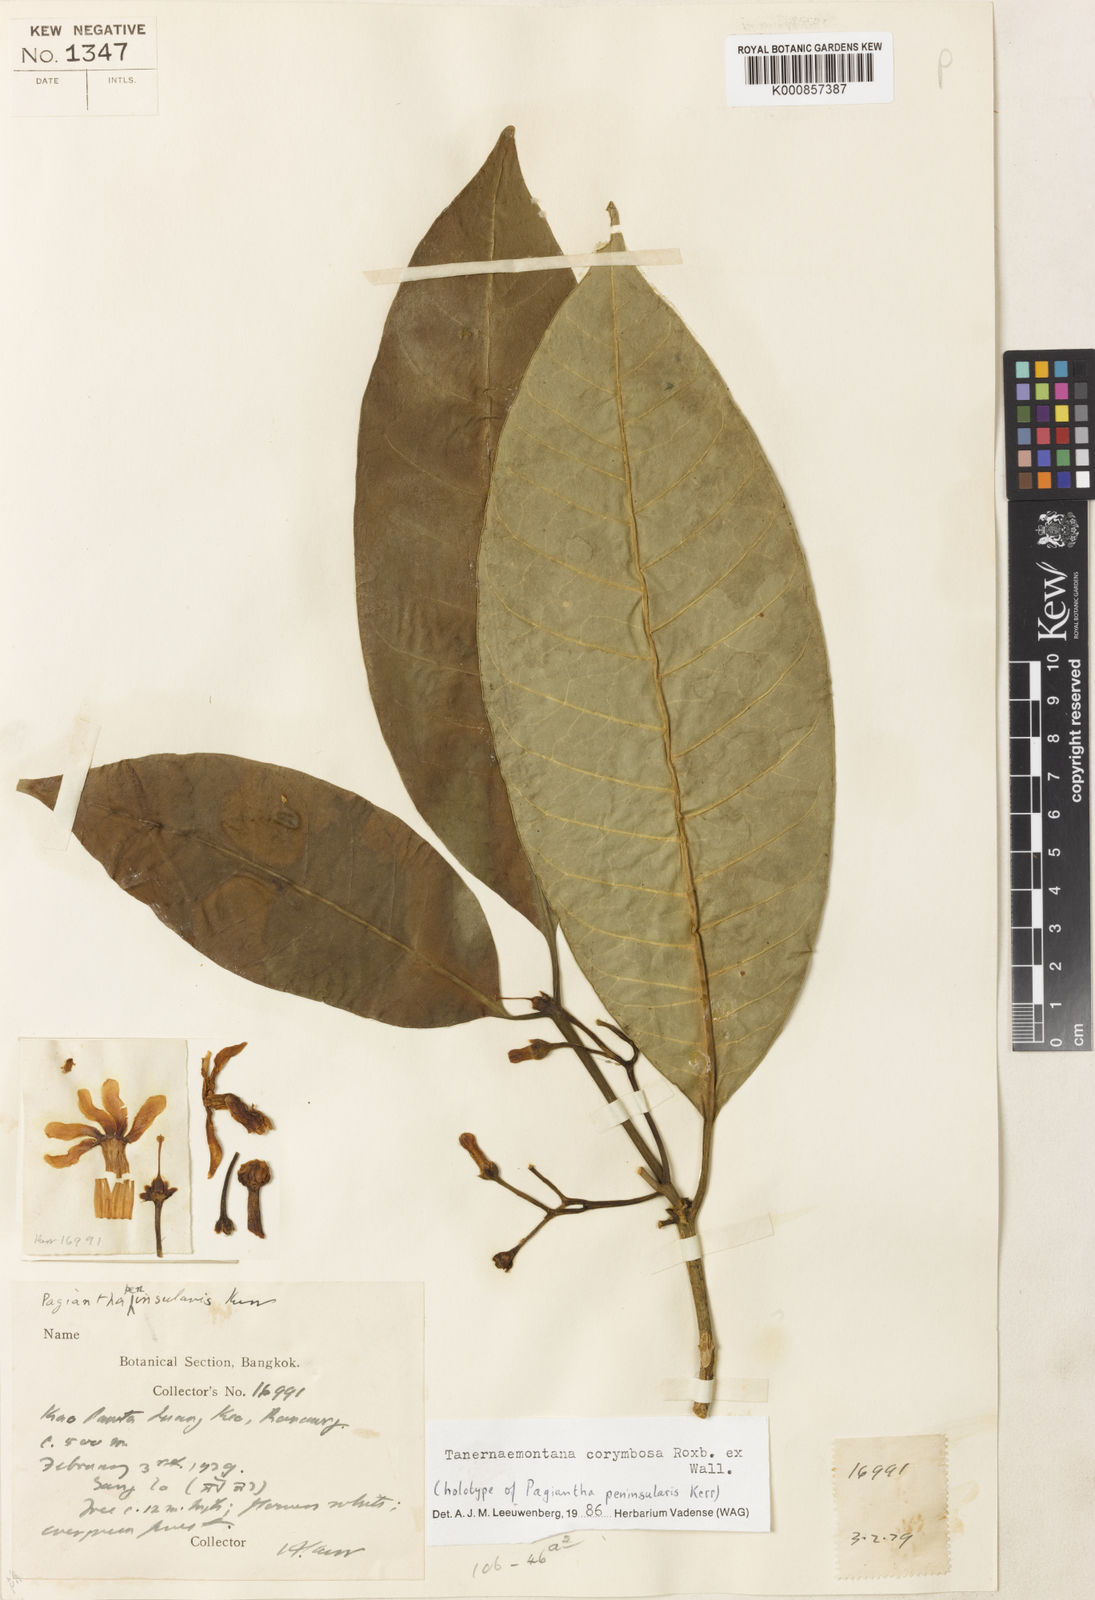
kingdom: Plantae
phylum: Tracheophyta
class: Magnoliopsida
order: Gentianales
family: Apocynaceae
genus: Tabernaemontana
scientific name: Tabernaemontana corymbosa
